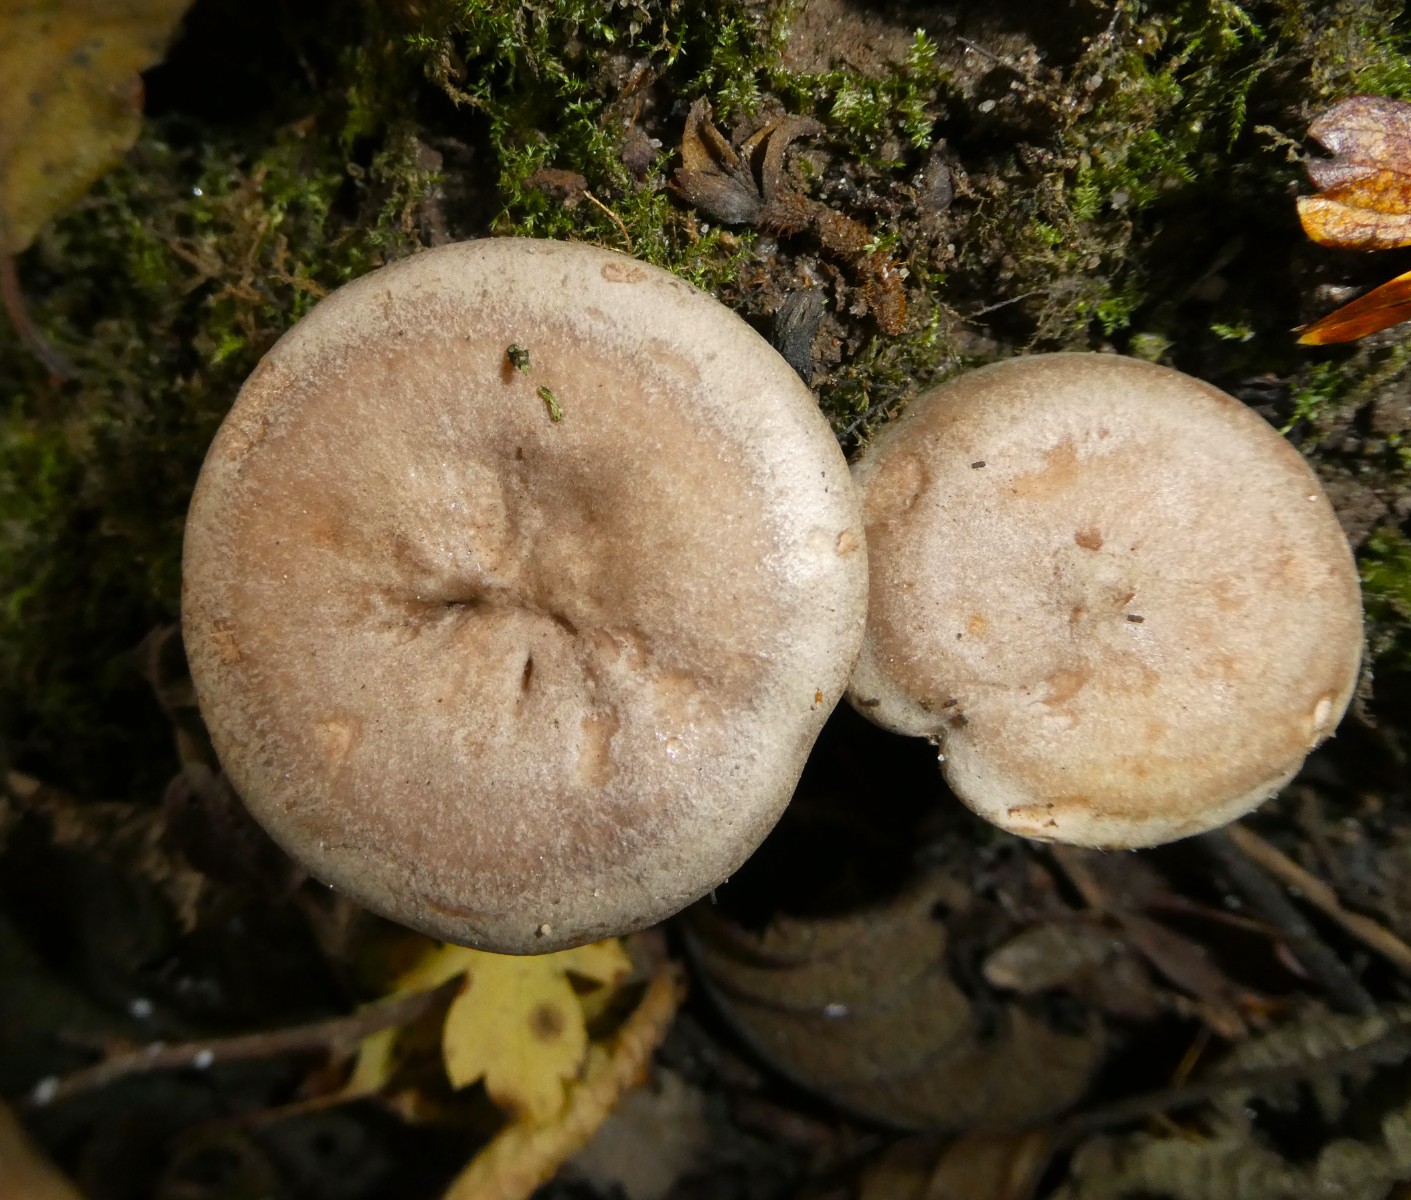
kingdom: Fungi
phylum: Basidiomycota
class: Agaricomycetes
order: Russulales
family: Russulaceae
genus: Lactarius
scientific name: Lactarius pyrogalus
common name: hassel-mælkehat
